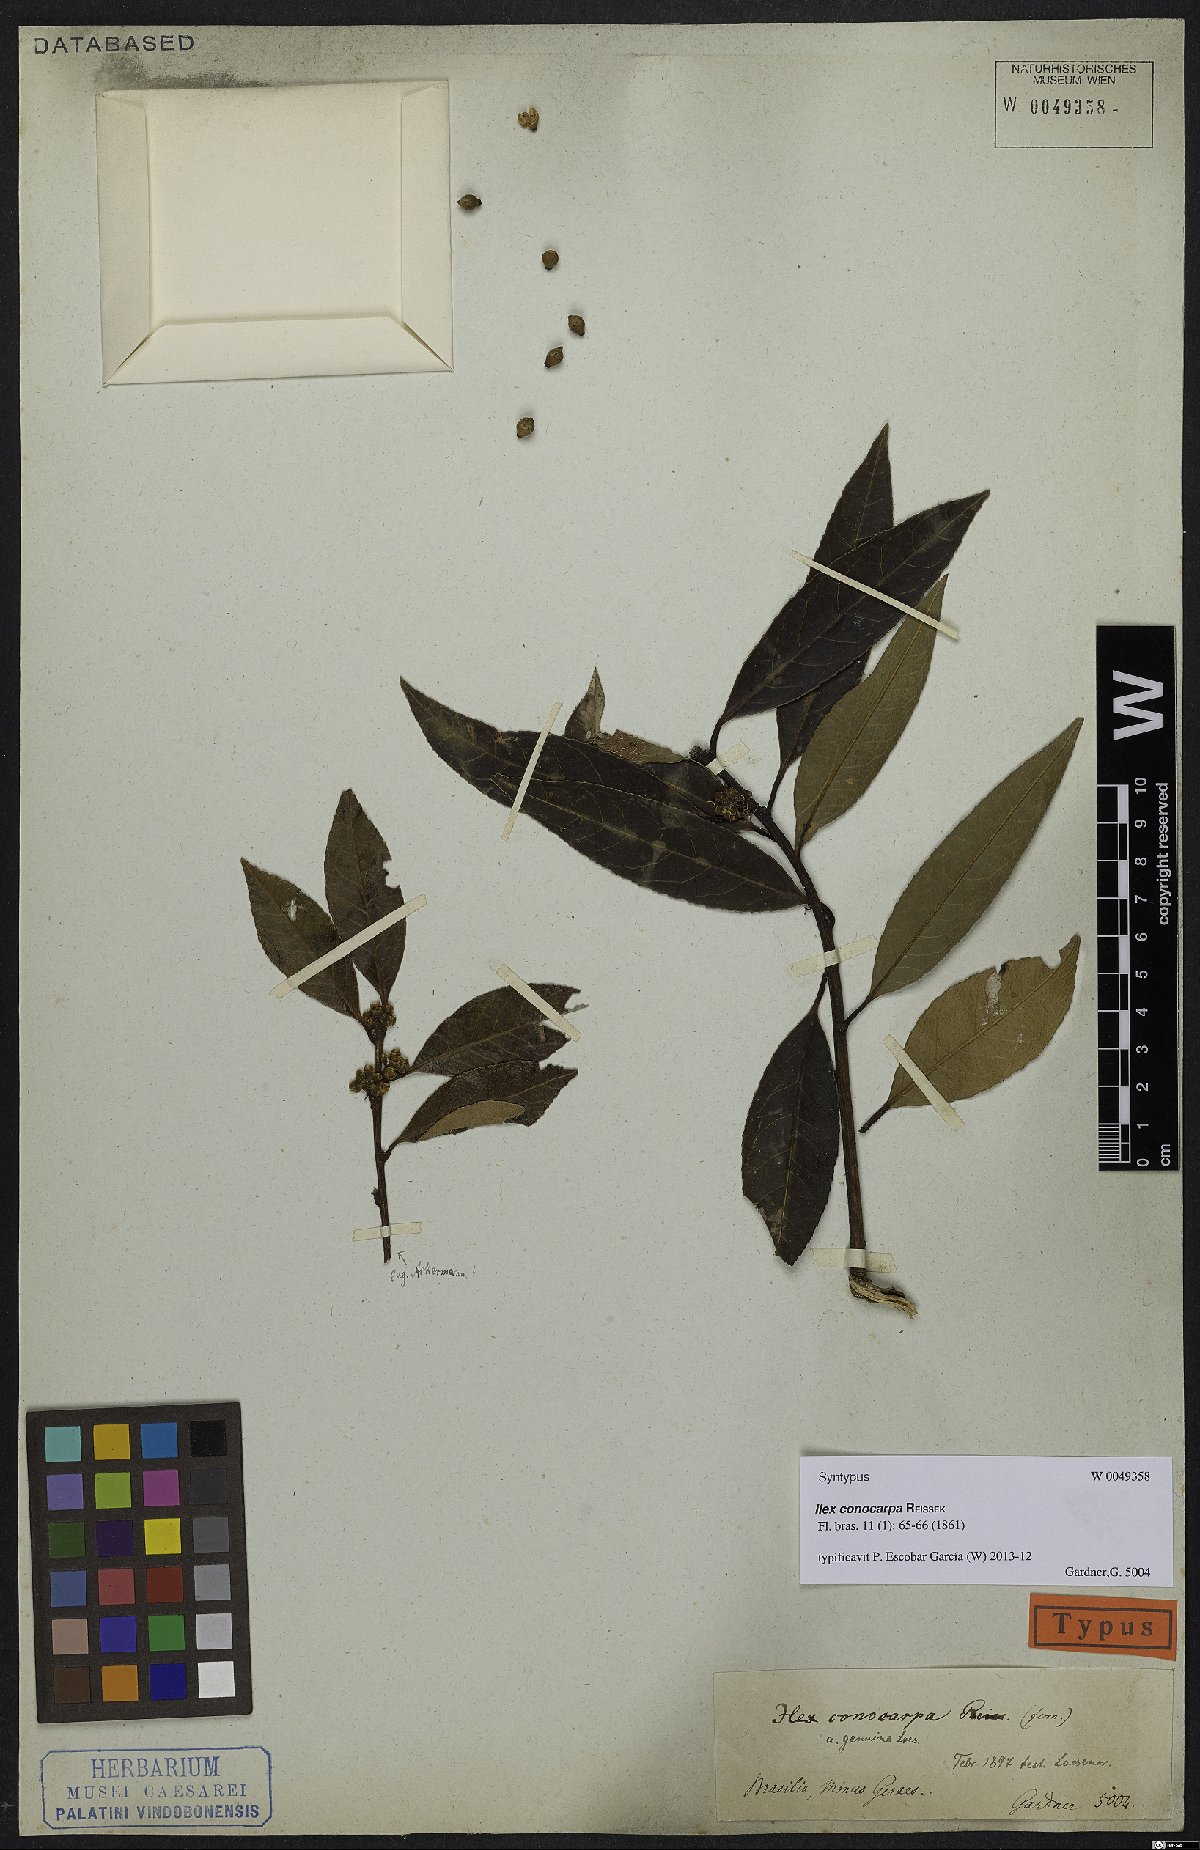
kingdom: Plantae
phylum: Tracheophyta
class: Magnoliopsida
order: Aquifoliales
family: Aquifoliaceae
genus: Ilex
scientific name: Ilex conocarpa
